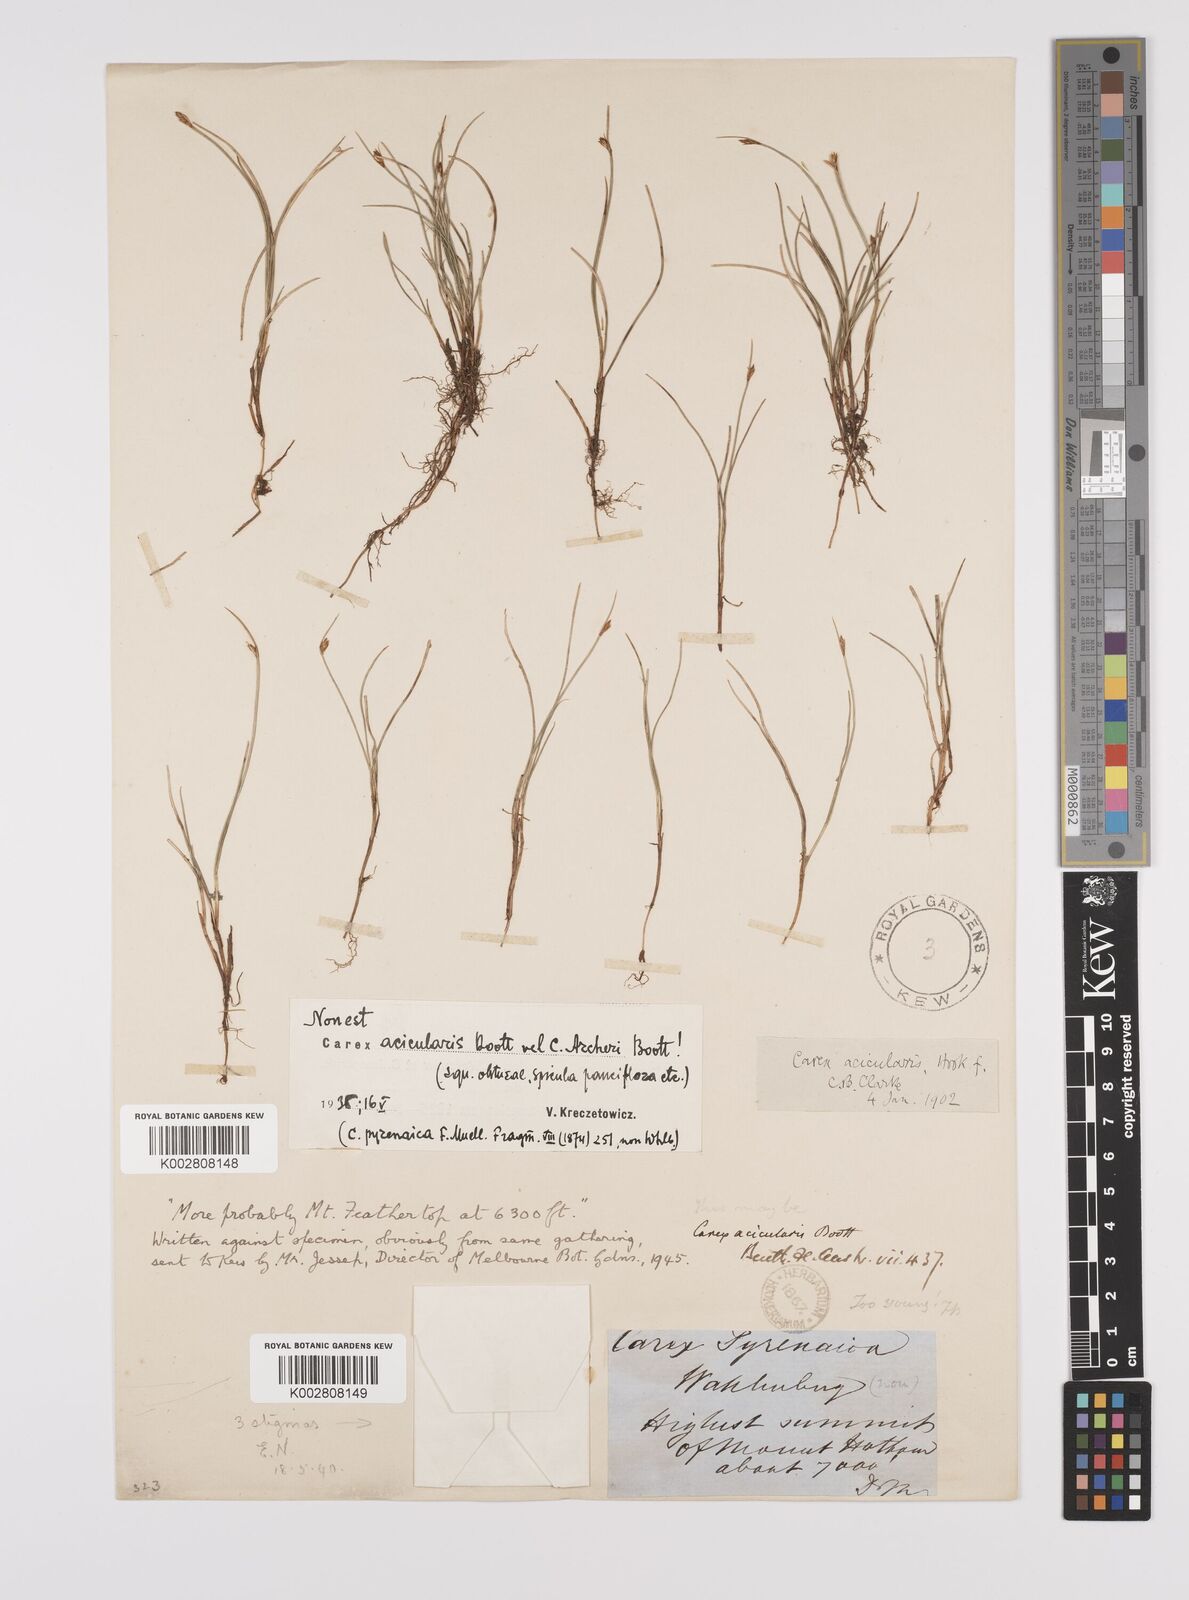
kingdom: Plantae
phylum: Tracheophyta
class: Liliopsida
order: Poales
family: Cyperaceae
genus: Carex
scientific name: Carex archeri
